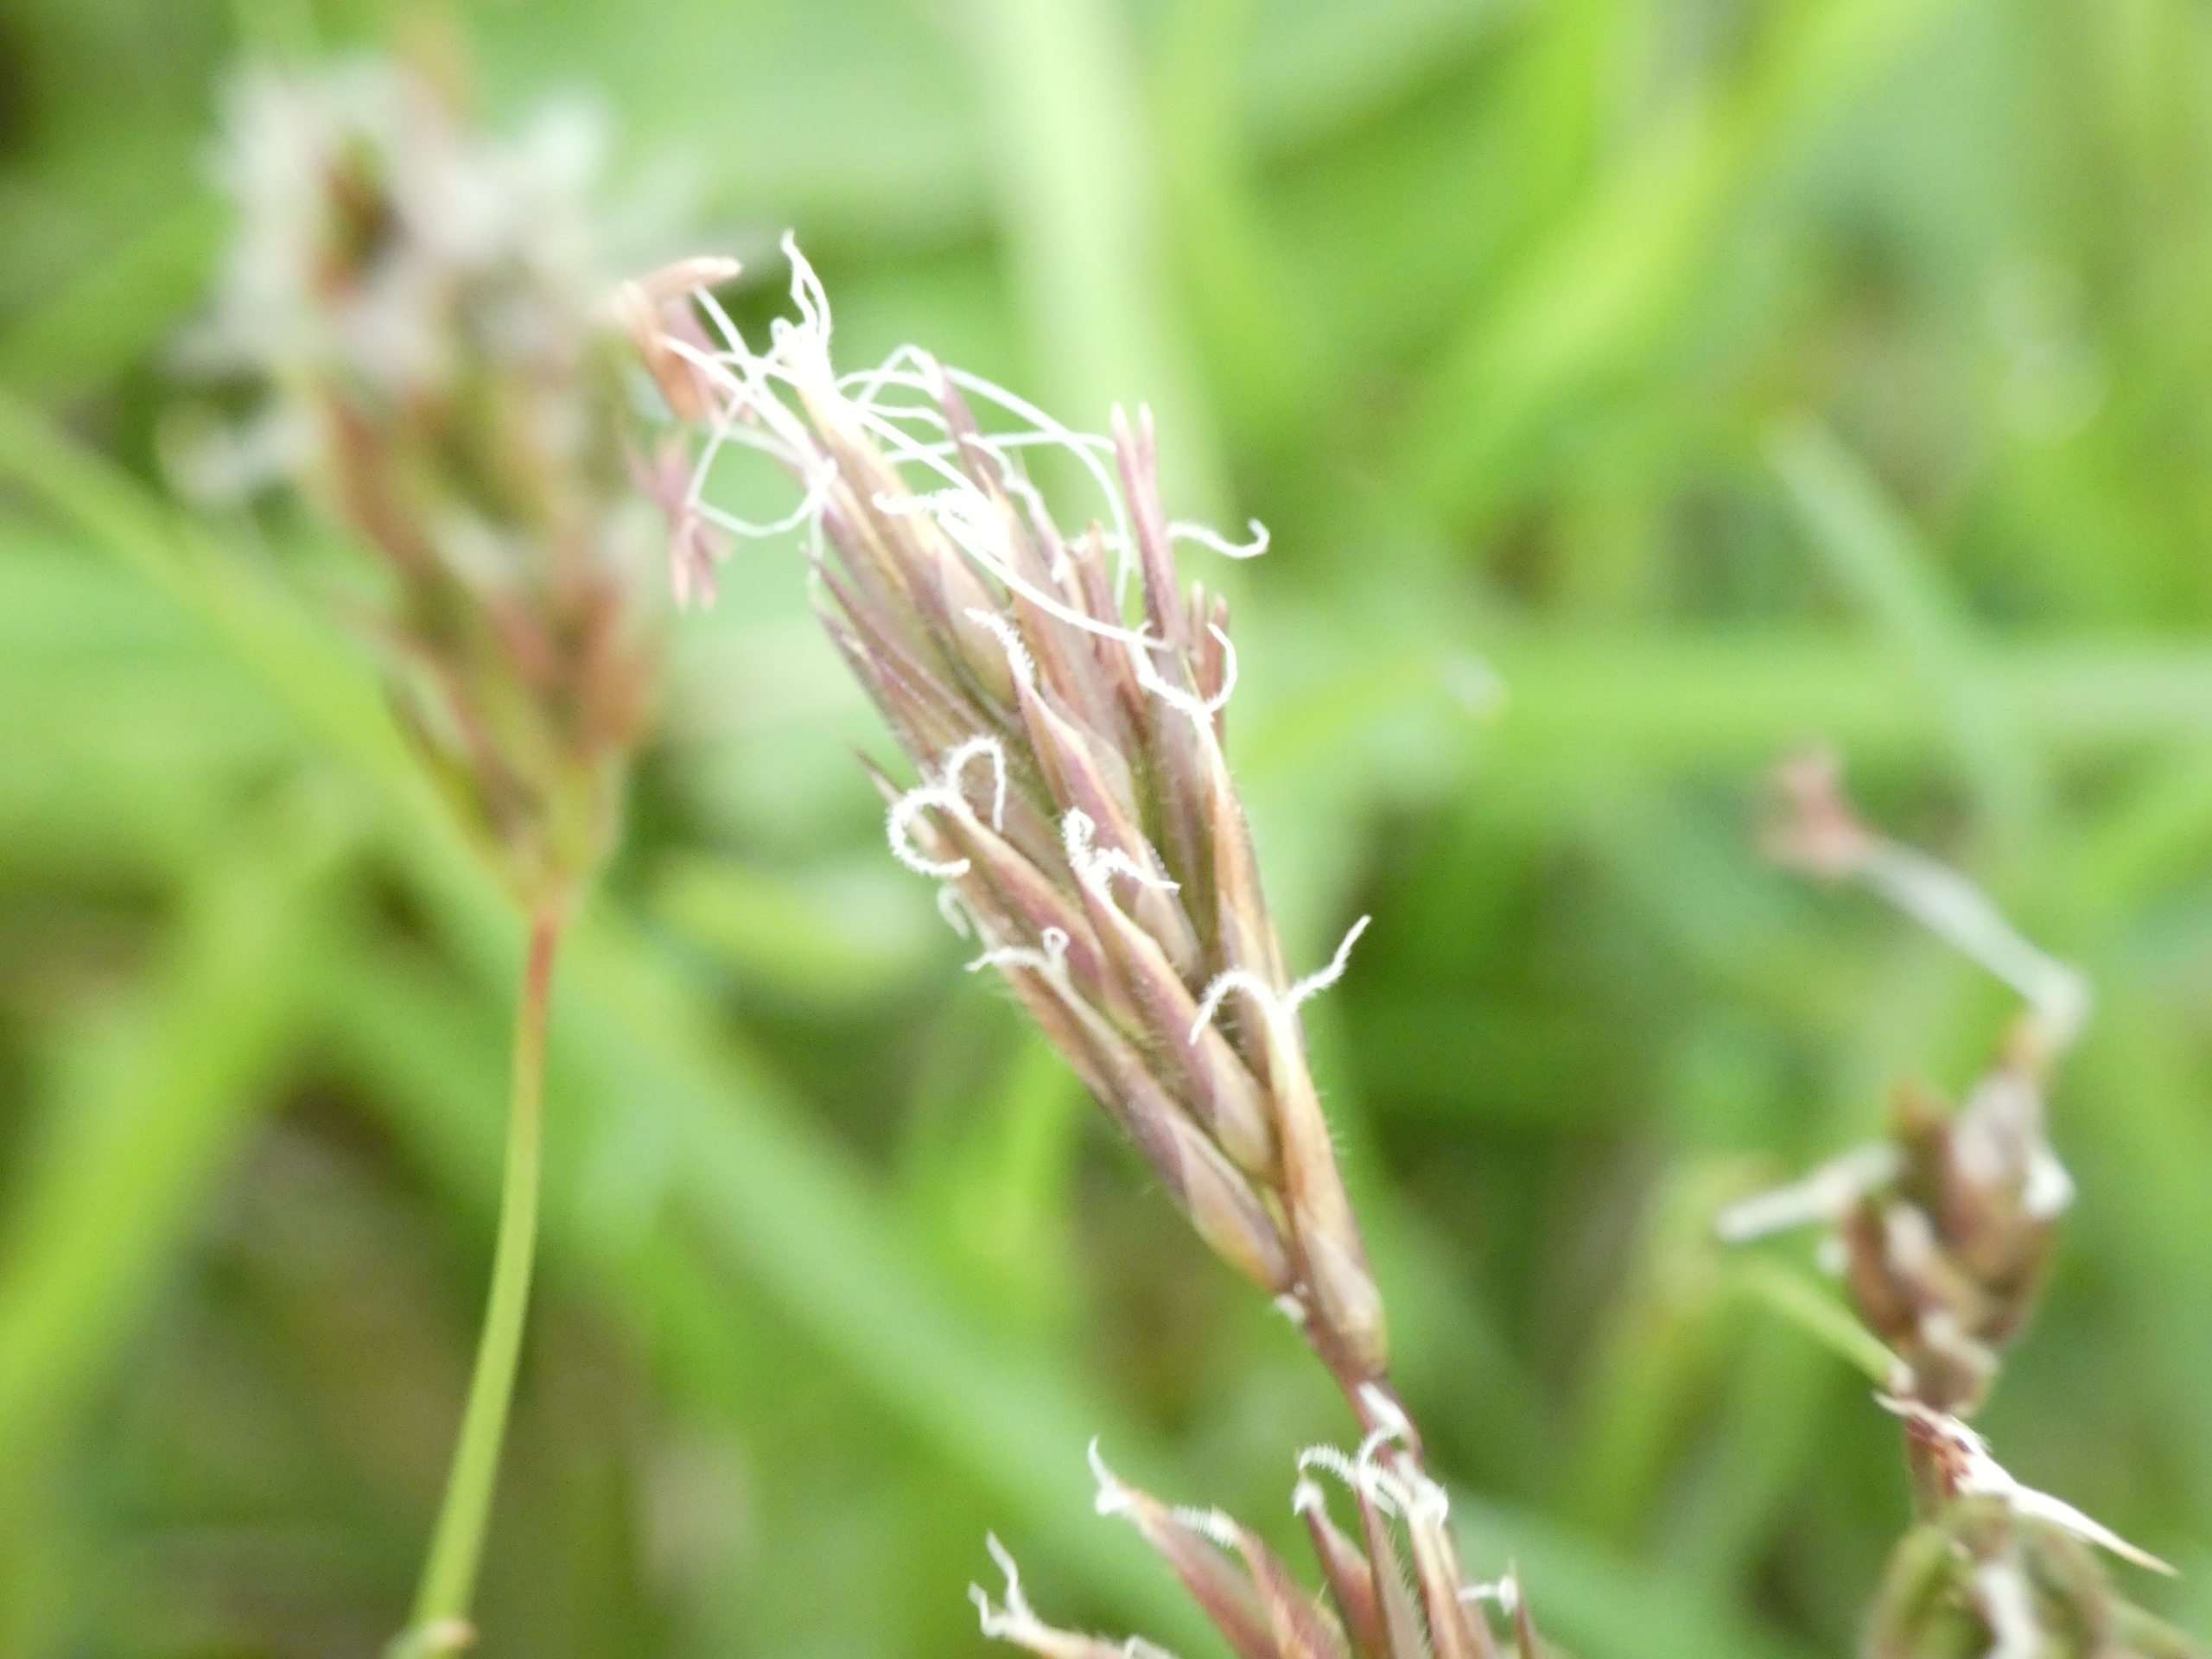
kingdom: Plantae
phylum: Tracheophyta
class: Liliopsida
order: Poales
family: Poaceae
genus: Anthoxanthum
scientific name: Anthoxanthum odoratum
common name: Vellugtende gulaks
